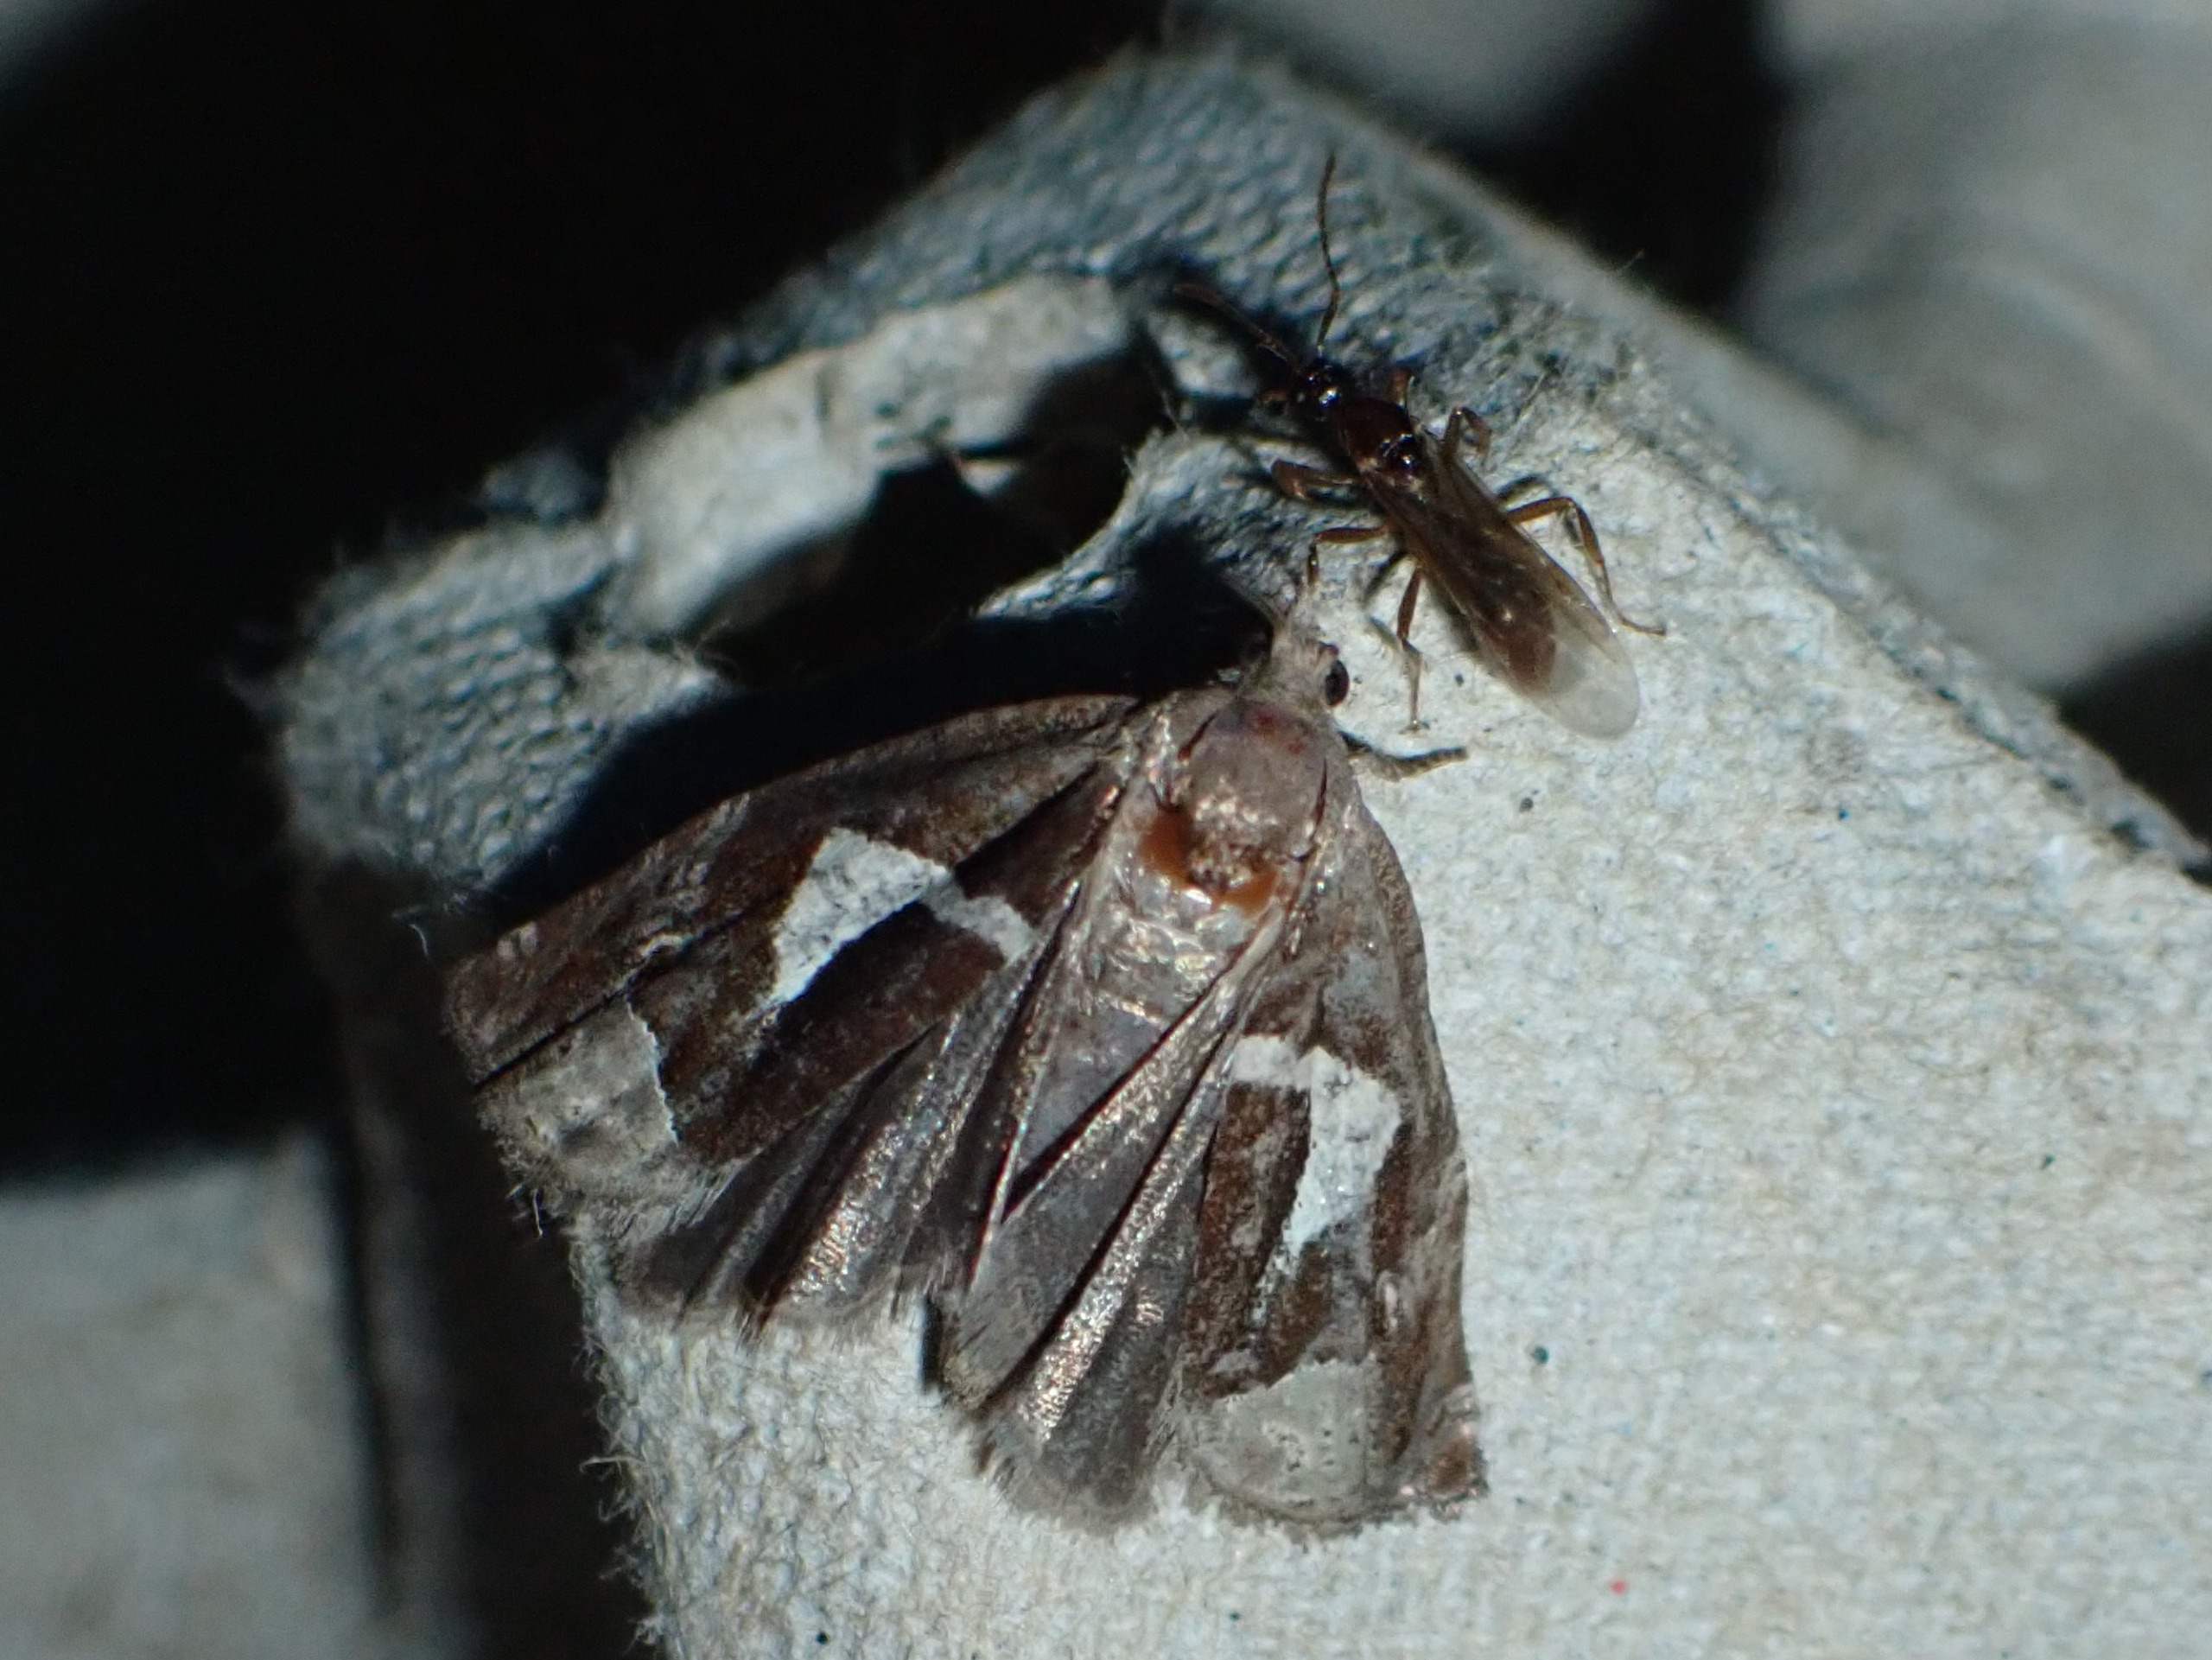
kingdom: Animalia
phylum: Arthropoda
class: Insecta
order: Lepidoptera
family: Tortricidae
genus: Epiblema
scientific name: Epiblema foenella
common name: Gråbynkegallevikler
